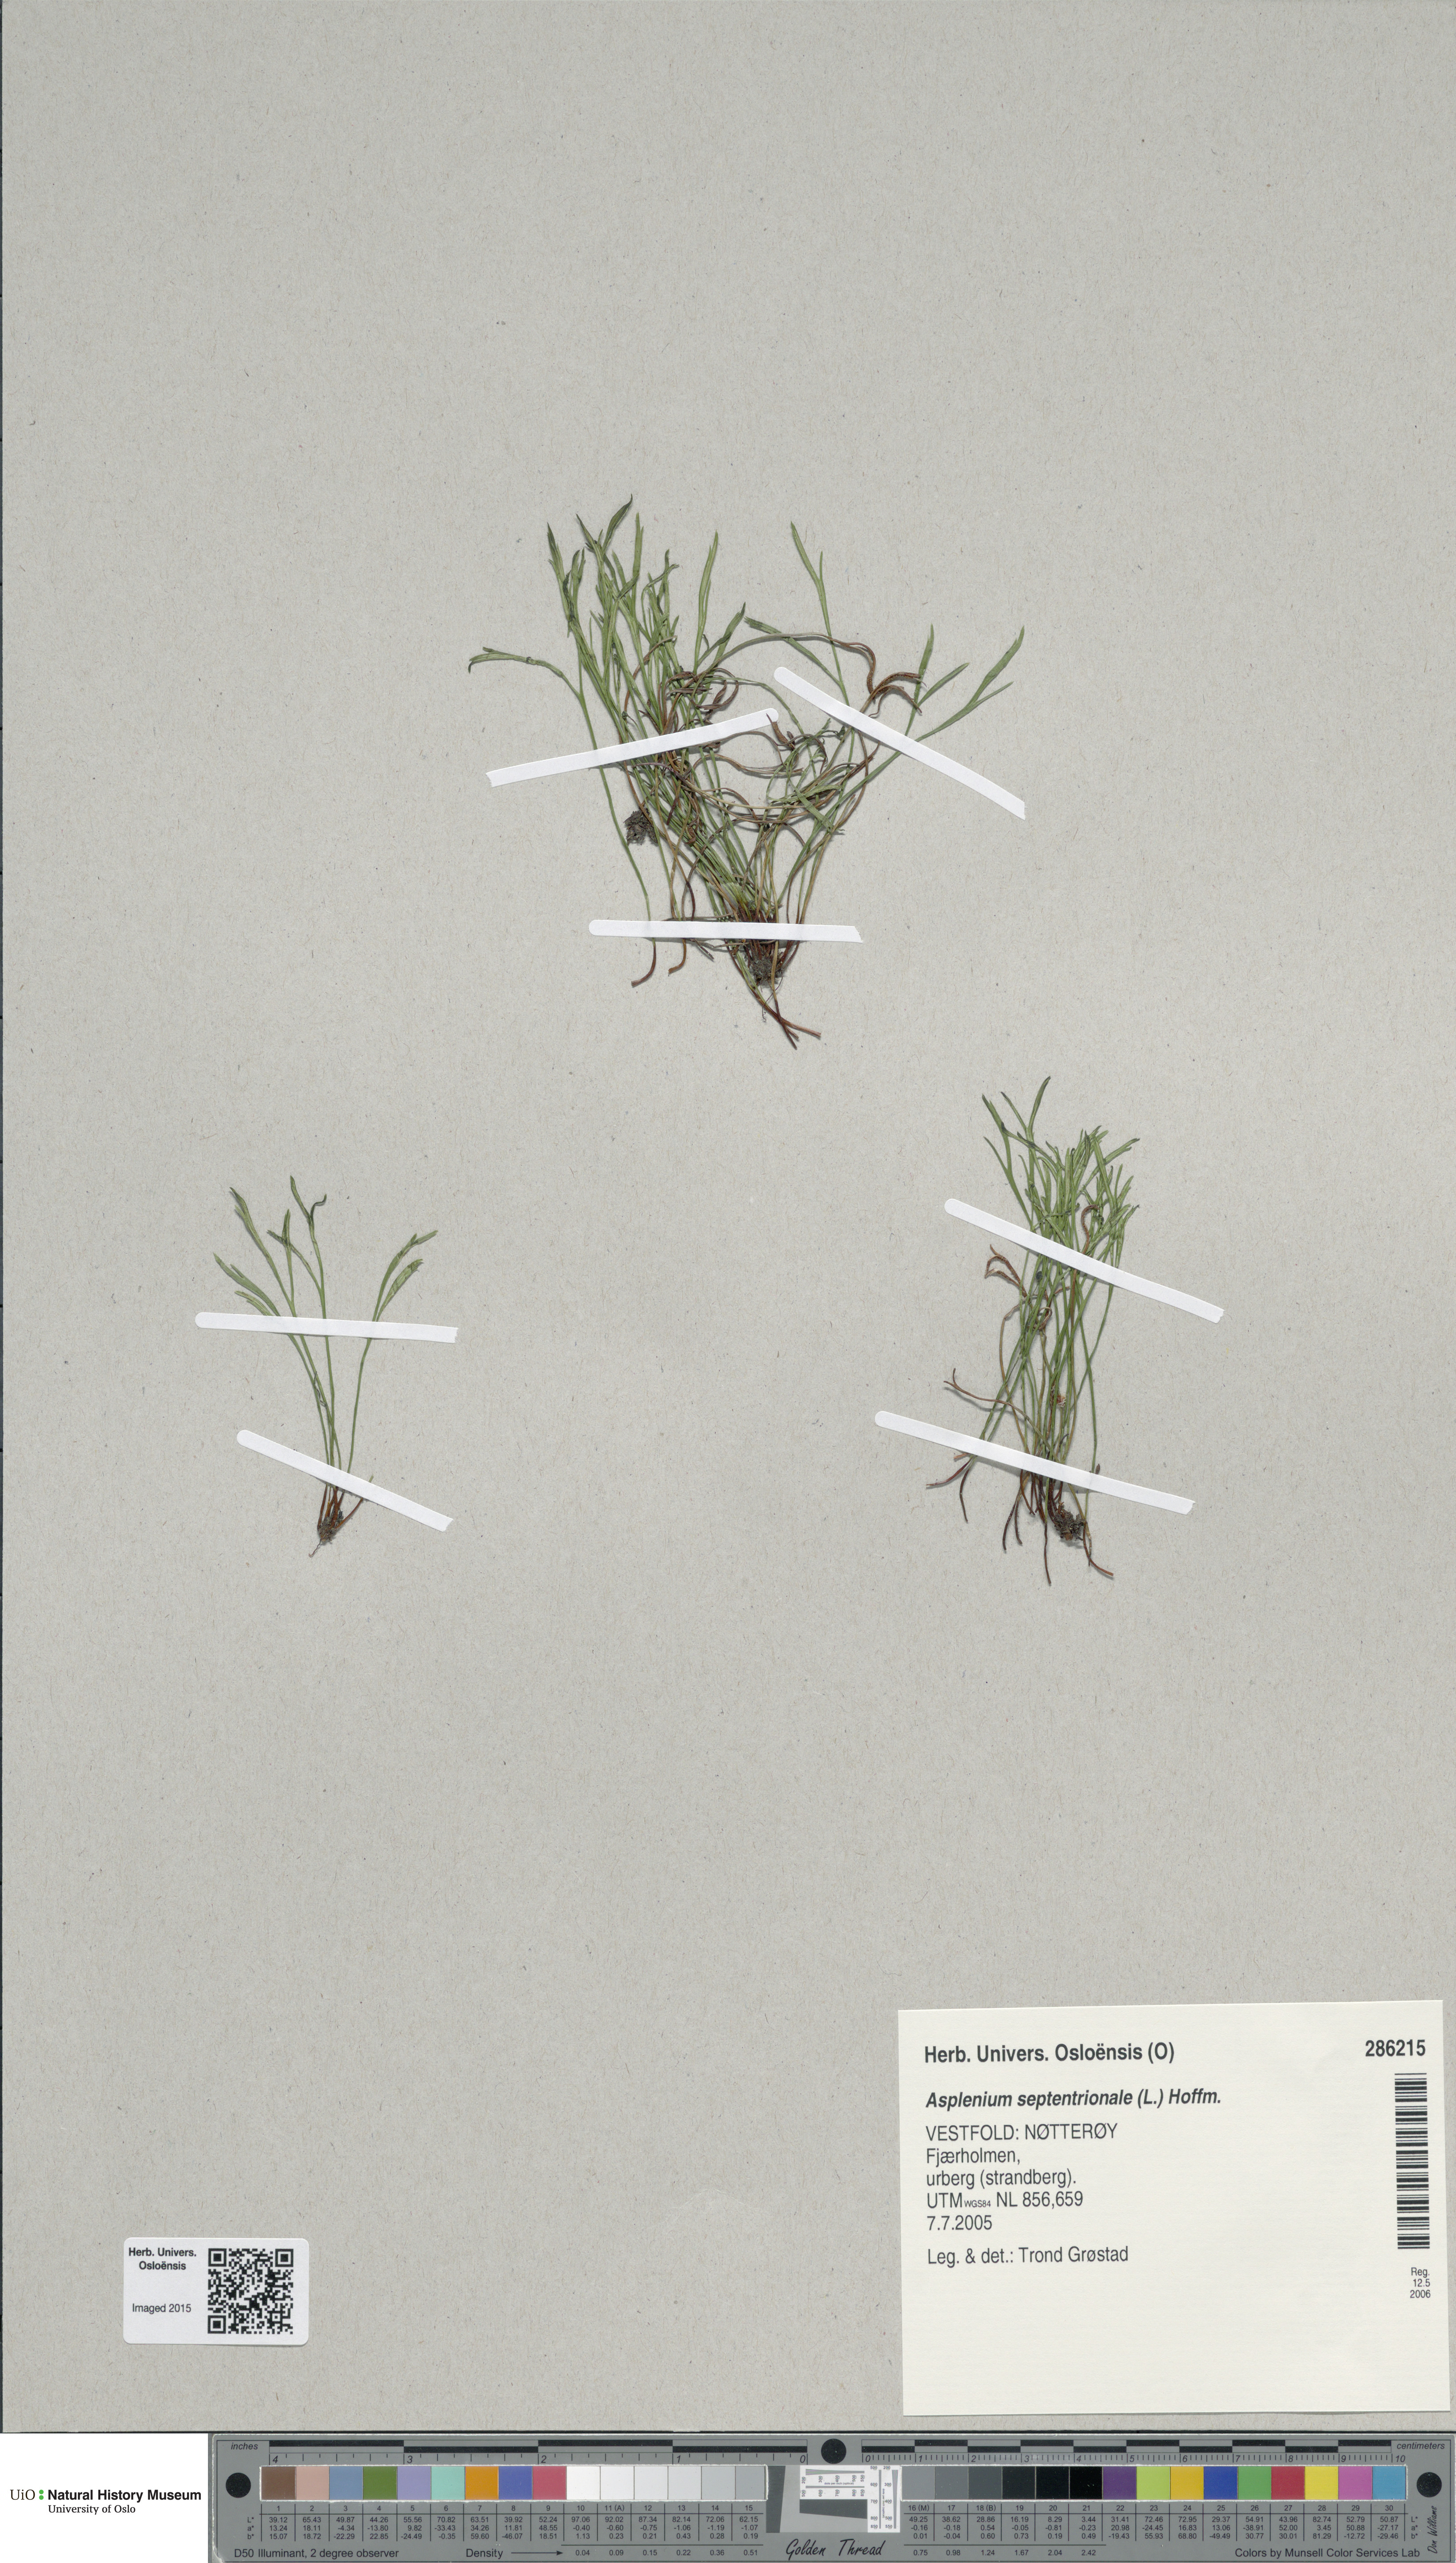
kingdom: Plantae
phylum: Tracheophyta
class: Polypodiopsida
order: Polypodiales
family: Aspleniaceae
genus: Asplenium
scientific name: Asplenium septentrionale
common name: Forked spleenwort
